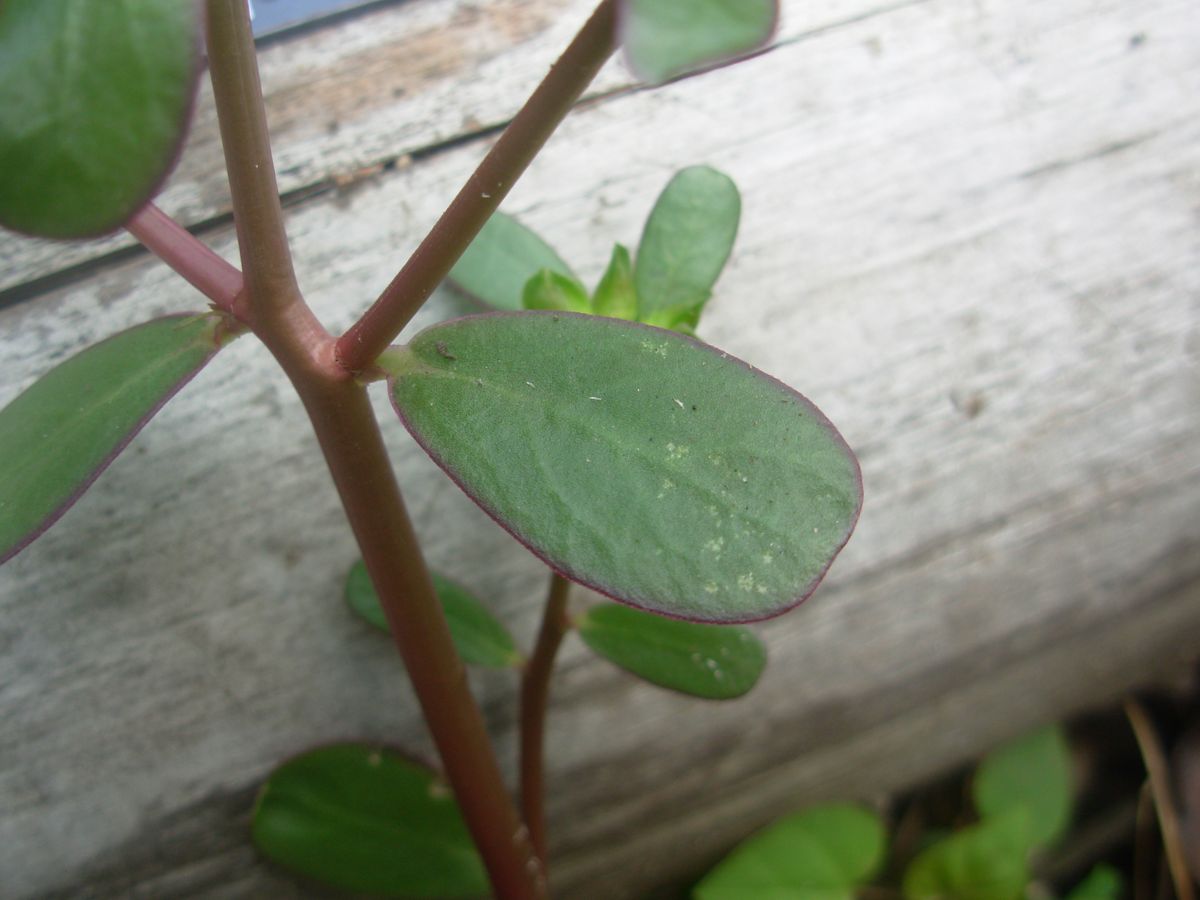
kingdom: Plantae
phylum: Tracheophyta
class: Magnoliopsida
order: Caryophyllales
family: Portulacaceae
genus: Portulaca
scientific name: Portulaca oleracea
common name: Common purslane
